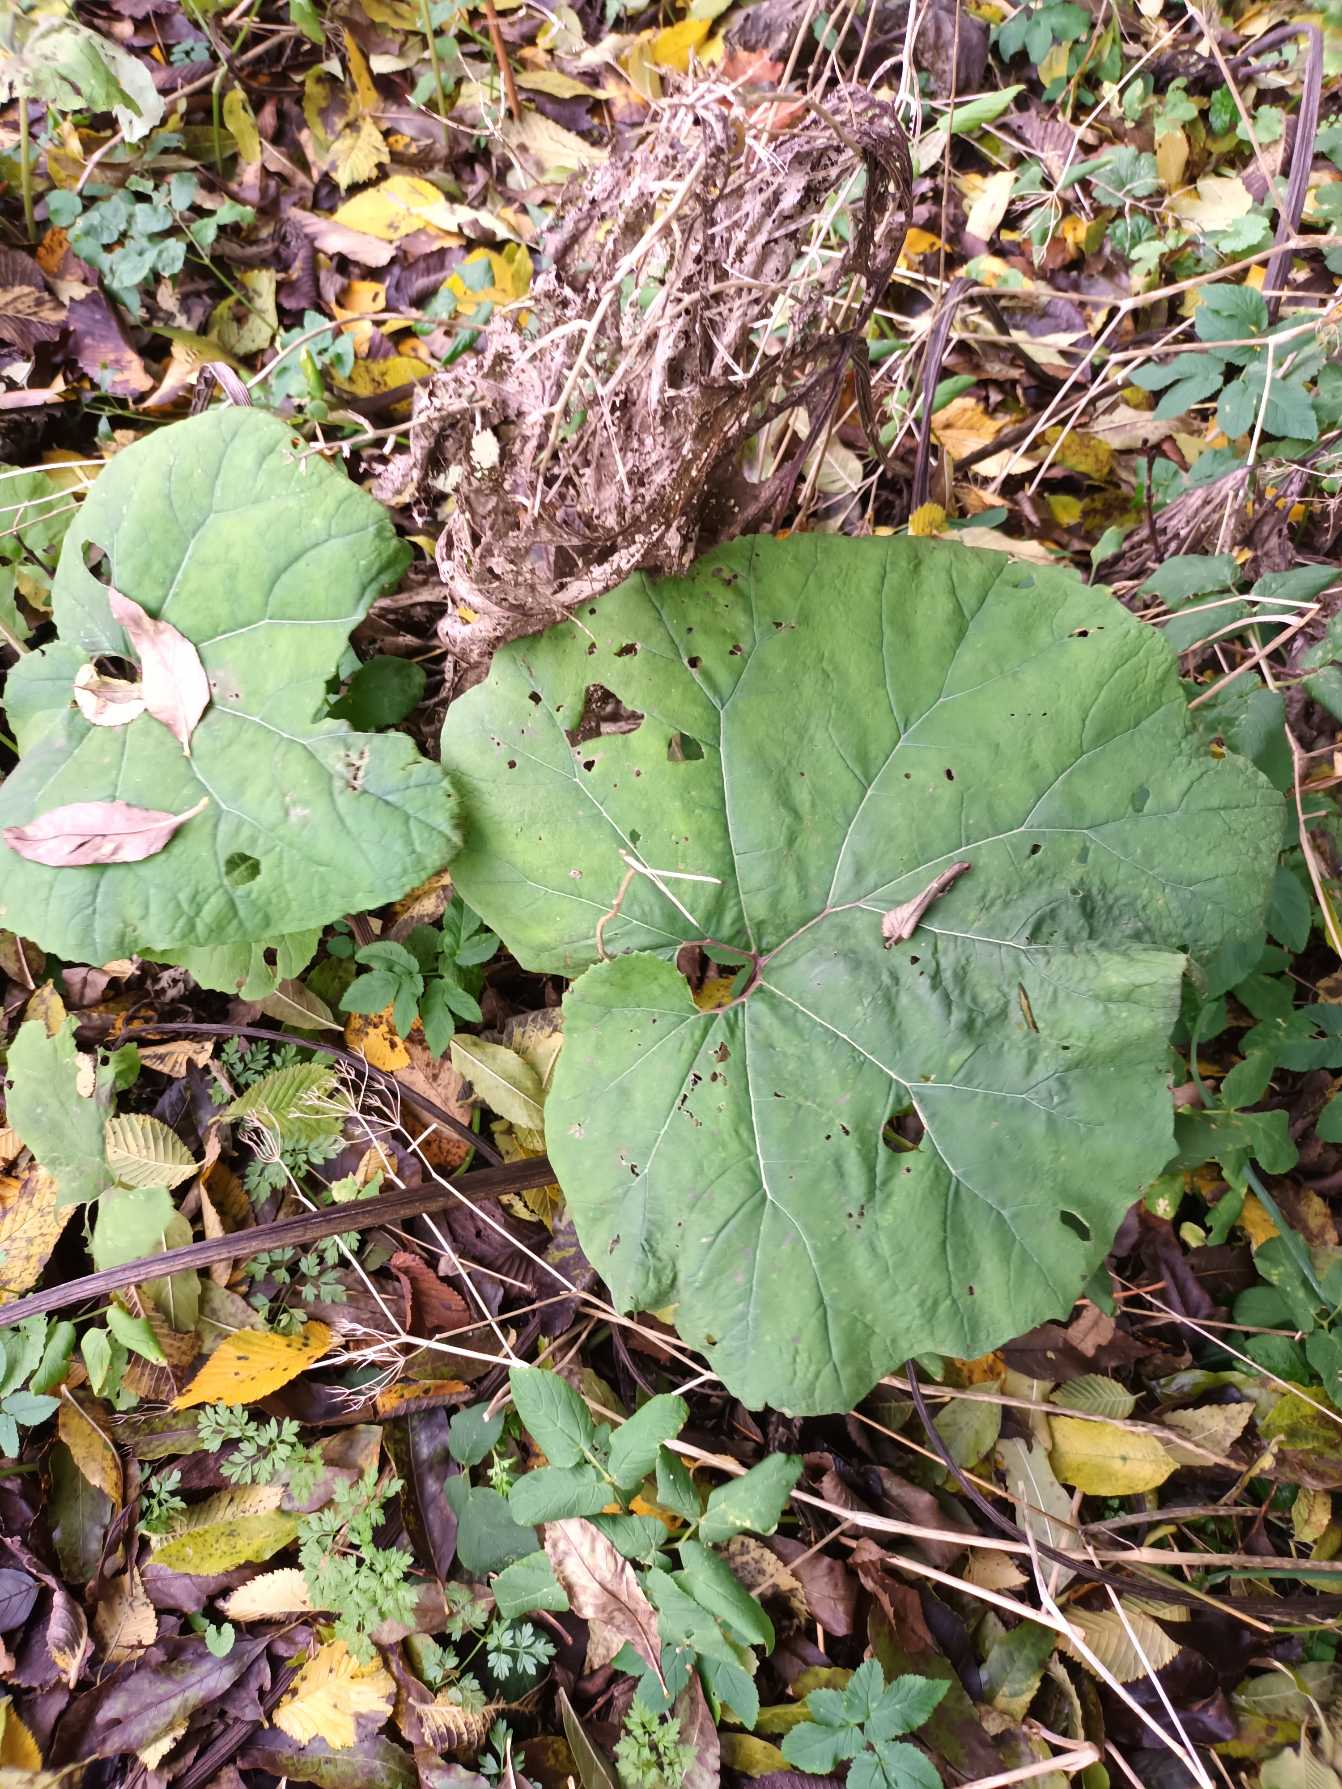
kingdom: Plantae
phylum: Tracheophyta
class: Magnoliopsida
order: Asterales
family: Asteraceae
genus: Petasites
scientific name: Petasites hybridus
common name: Rød hestehov
